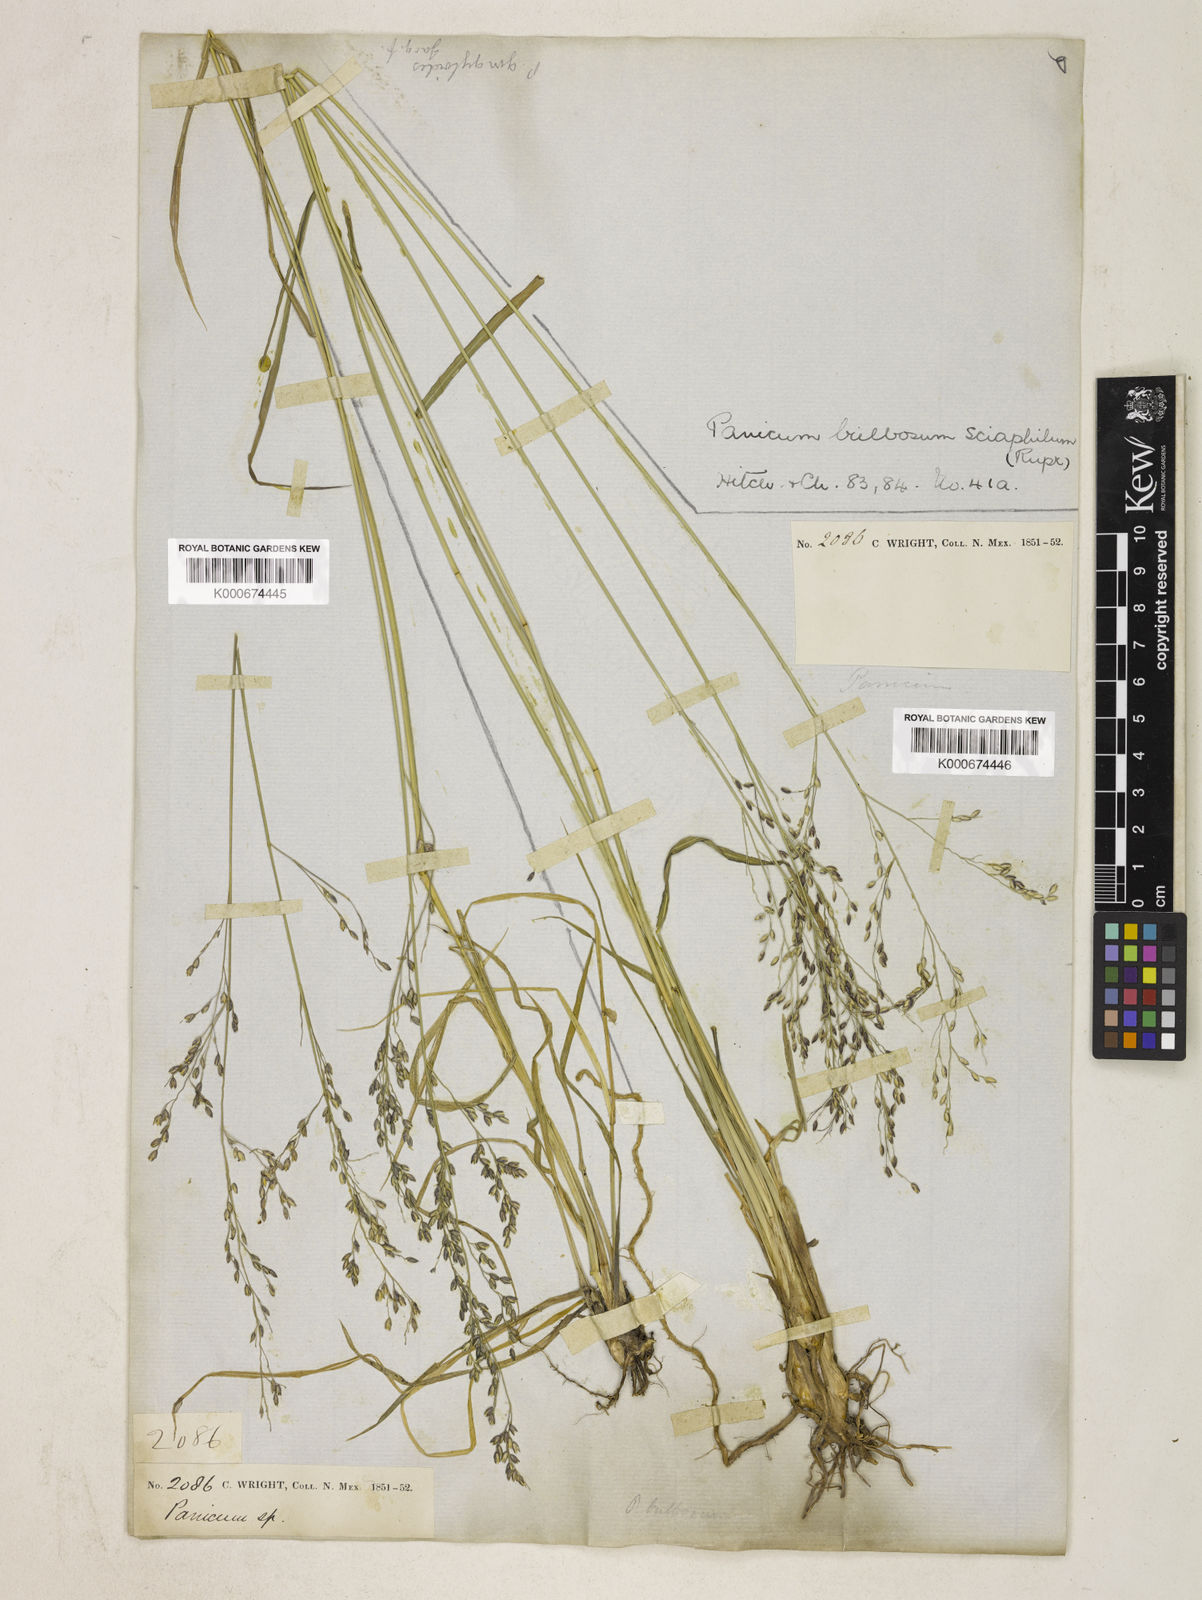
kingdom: Plantae
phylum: Tracheophyta
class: Liliopsida
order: Poales
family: Poaceae
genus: Zuloagaea
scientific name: Zuloagaea bulbosa
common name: Canyon panic grass
